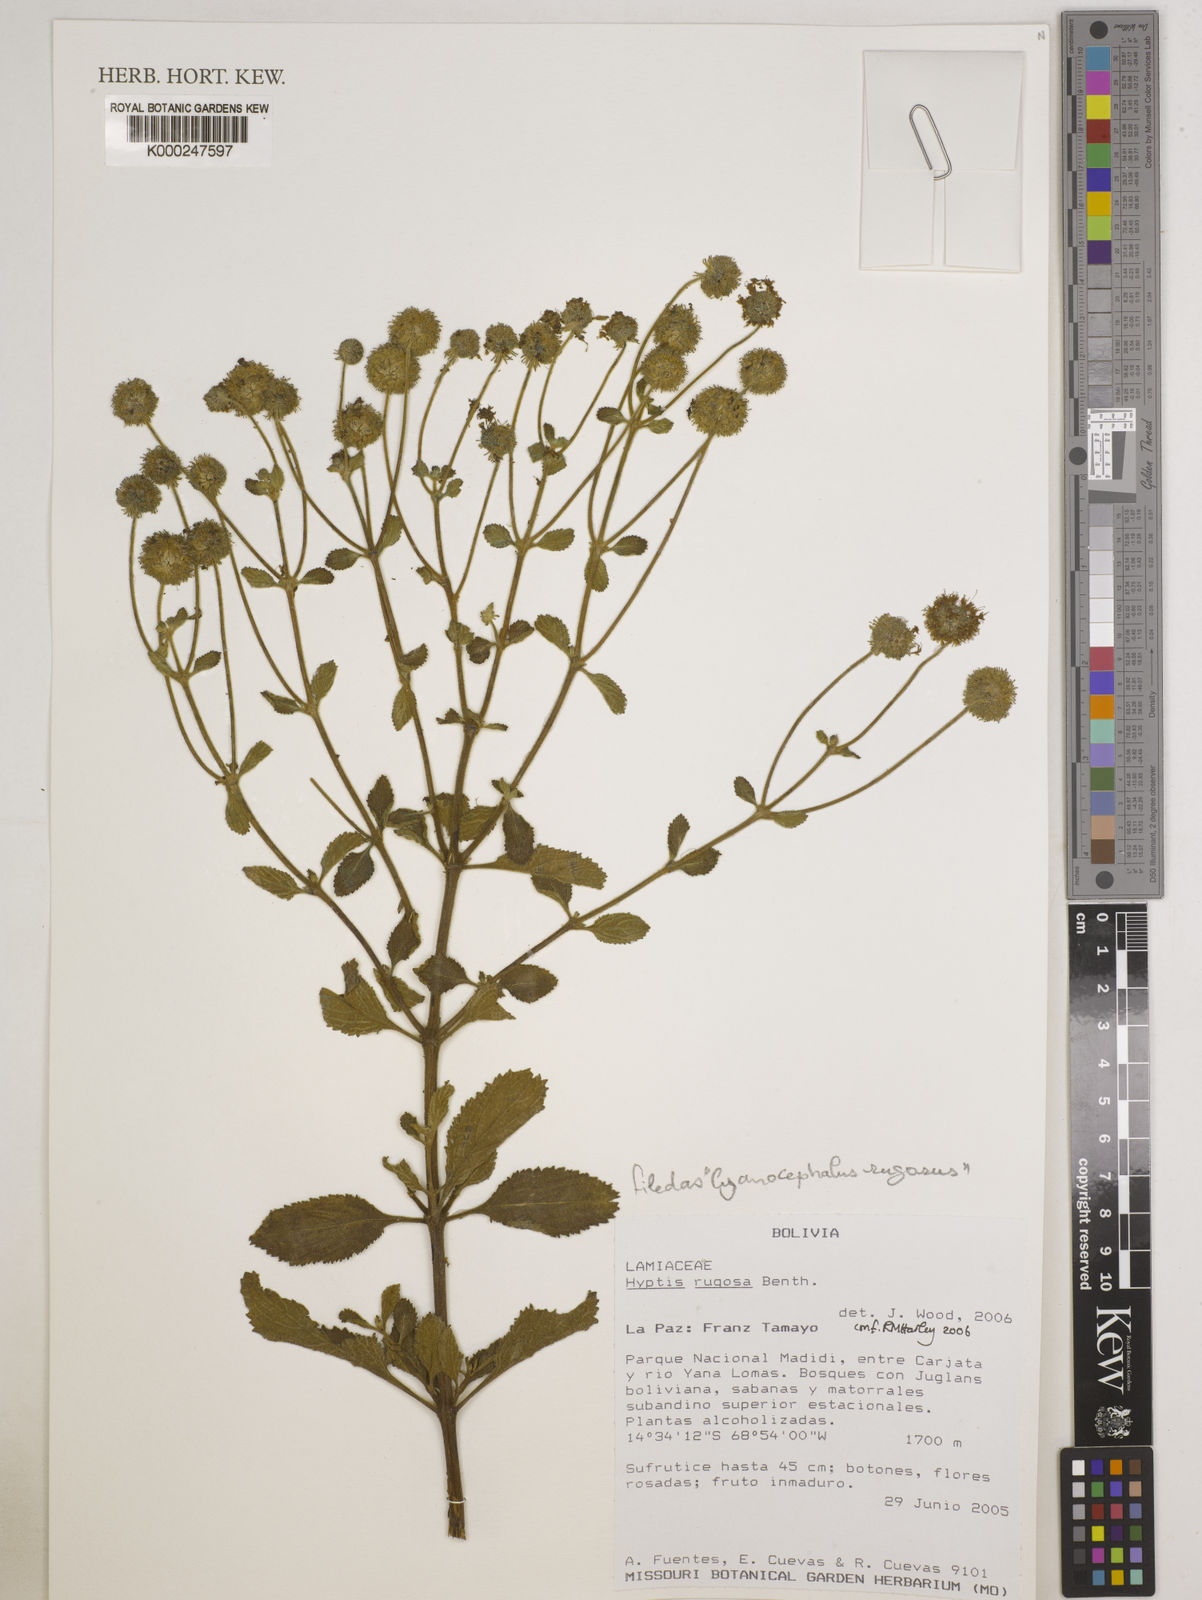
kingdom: Plantae
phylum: Tracheophyta
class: Magnoliopsida
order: Lamiales
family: Lamiaceae
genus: Cyanocephalus
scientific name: Cyanocephalus rugosus
